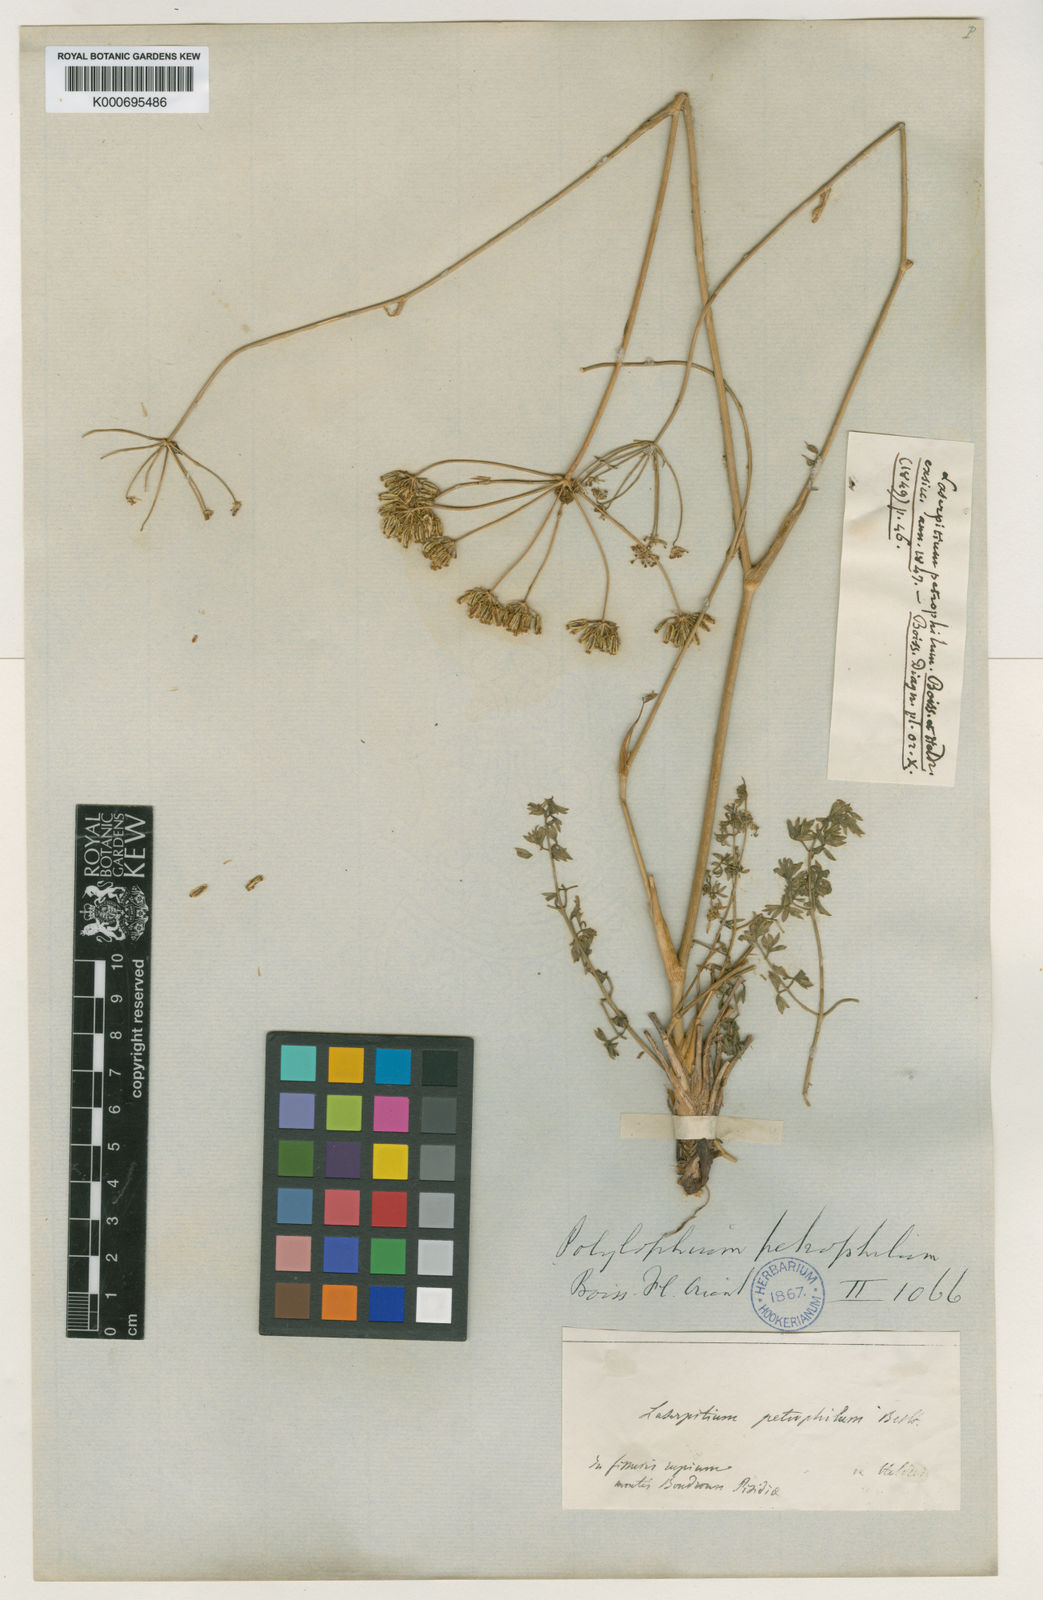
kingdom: Plantae
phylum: Tracheophyta
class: Magnoliopsida
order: Apiales
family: Apiaceae
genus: Ekimia
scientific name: Ekimia petrophila
